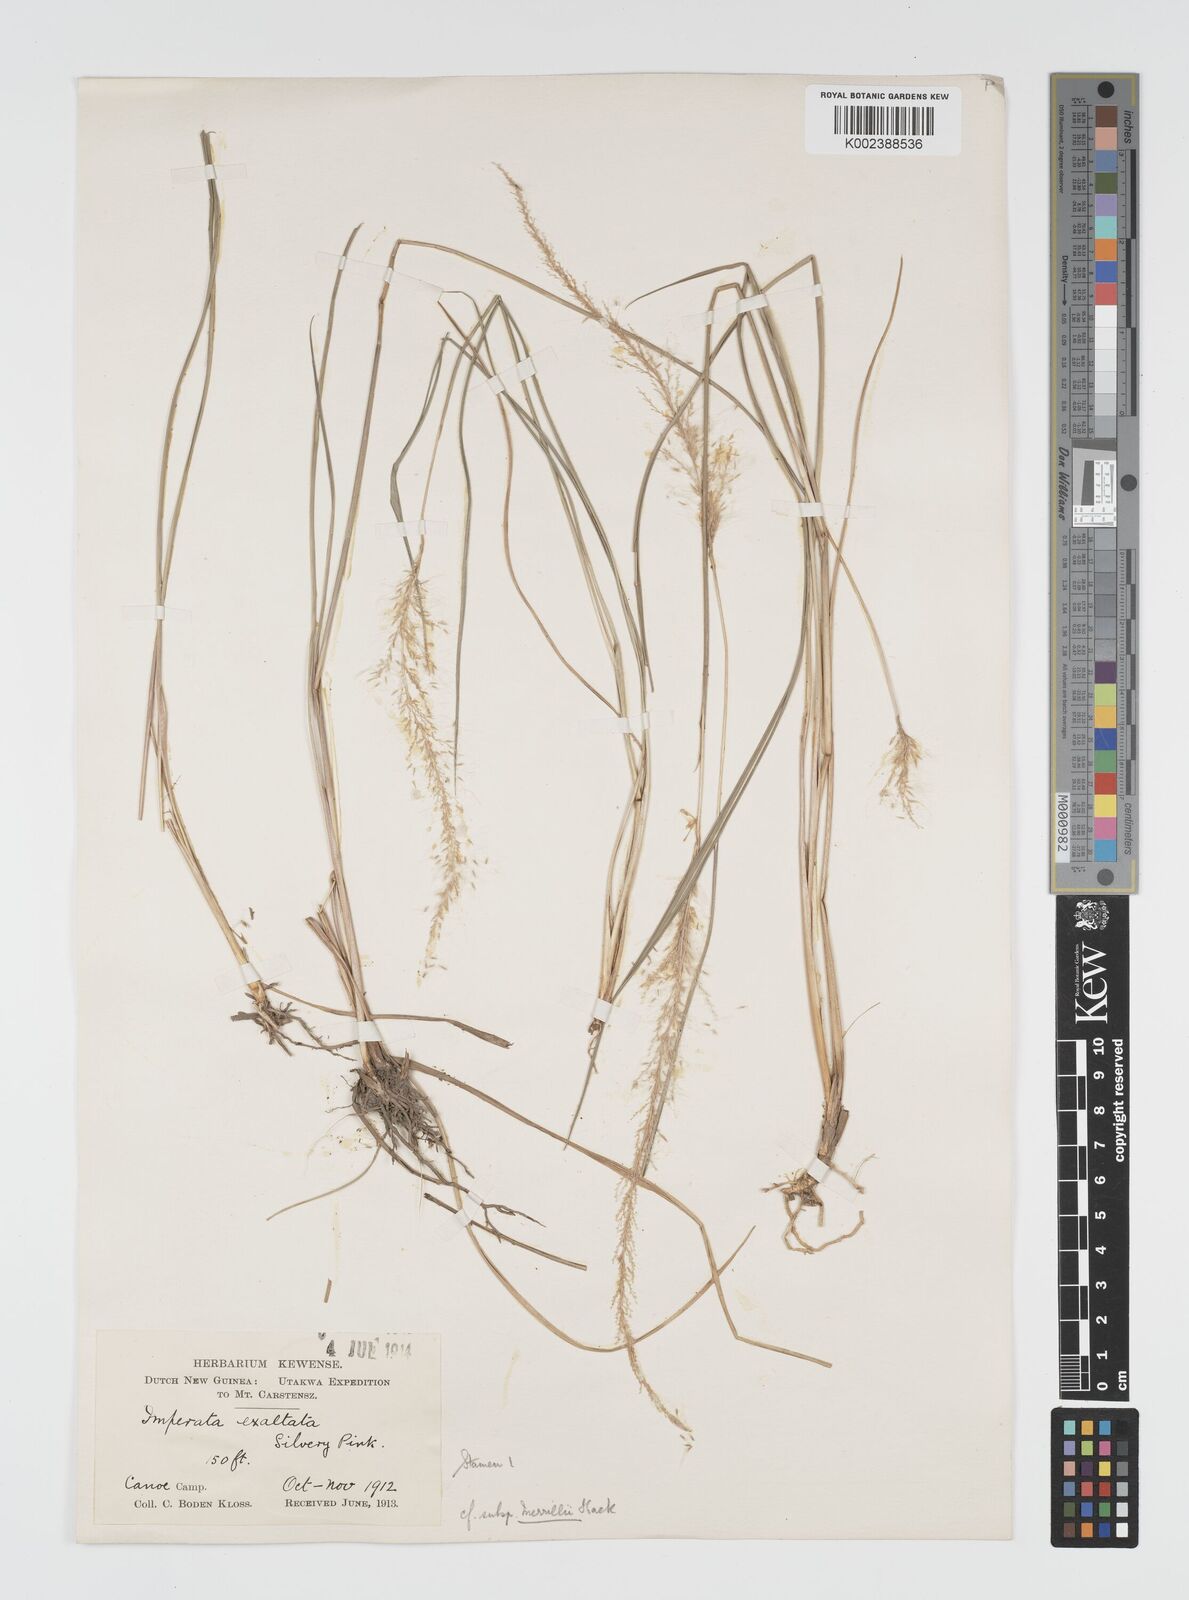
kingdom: Plantae
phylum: Tracheophyta
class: Liliopsida
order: Poales
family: Poaceae
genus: Imperata
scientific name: Imperata conferta
